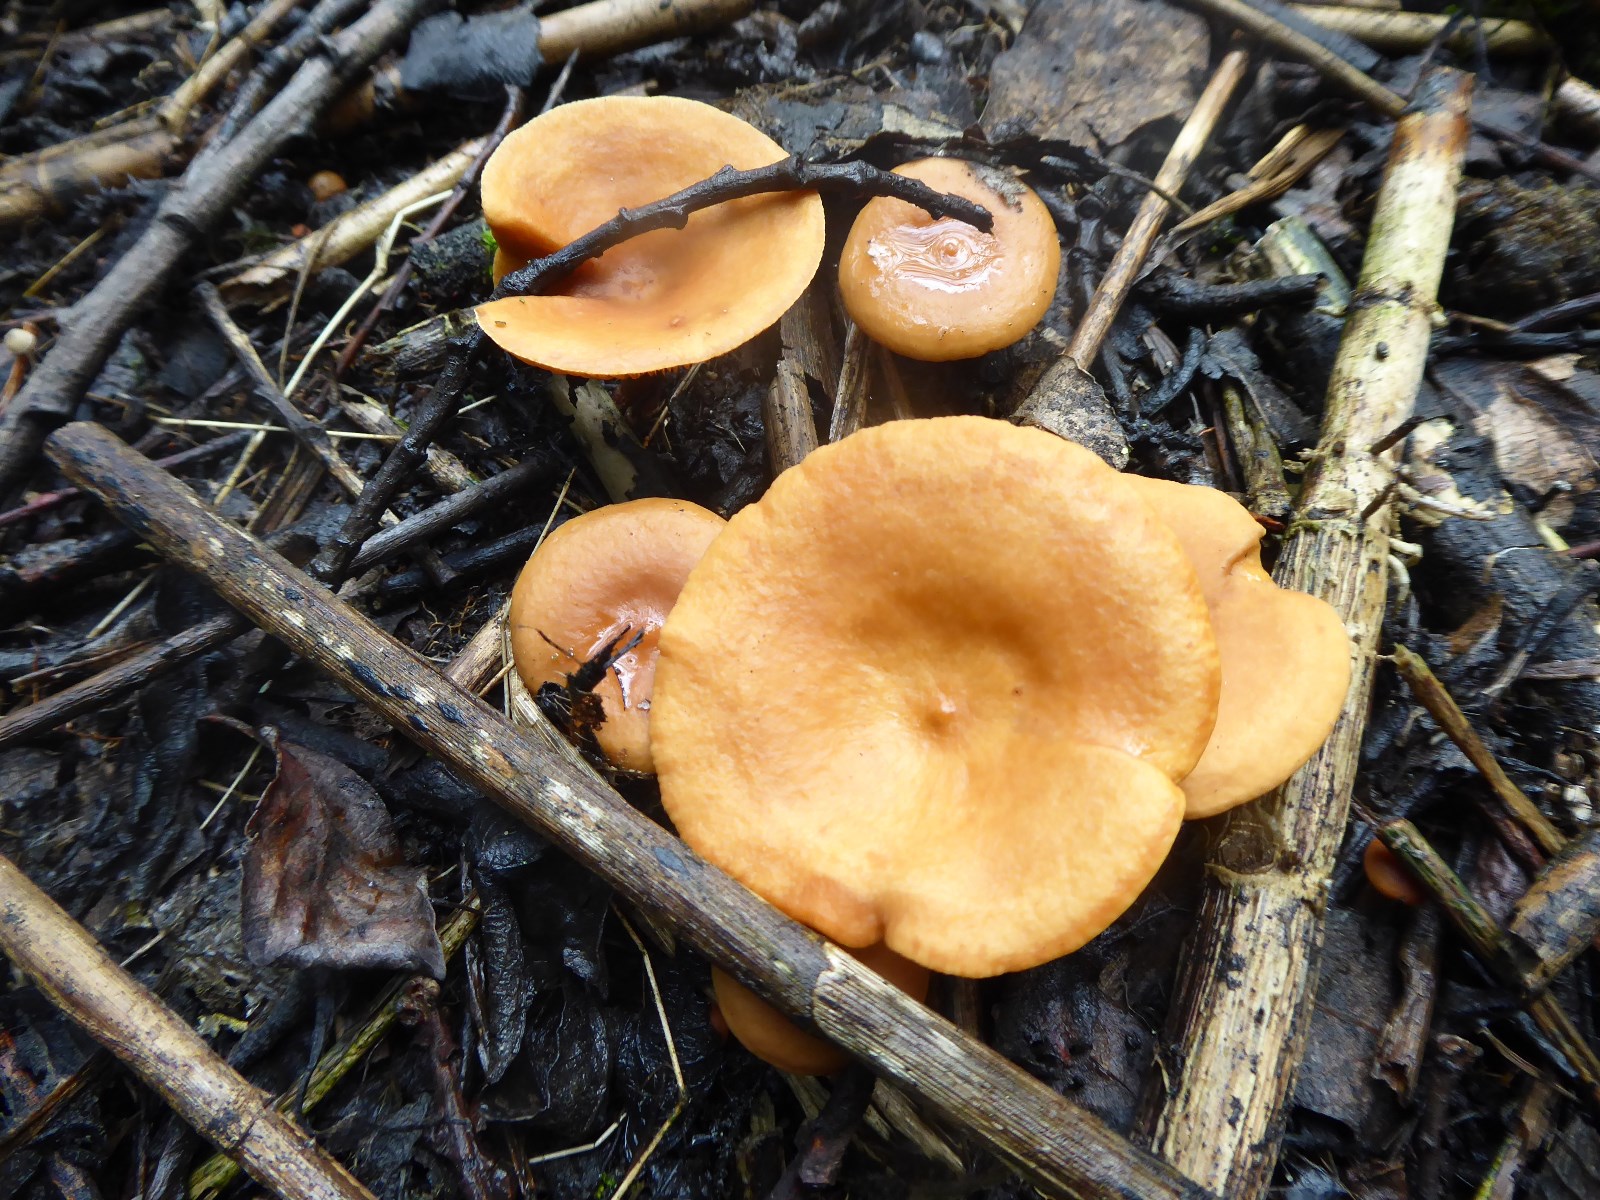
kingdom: Fungi
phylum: Basidiomycota
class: Agaricomycetes
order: Russulales
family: Russulaceae
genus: Lactarius
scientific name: Lactarius tabidus
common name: rynket mælkehat
